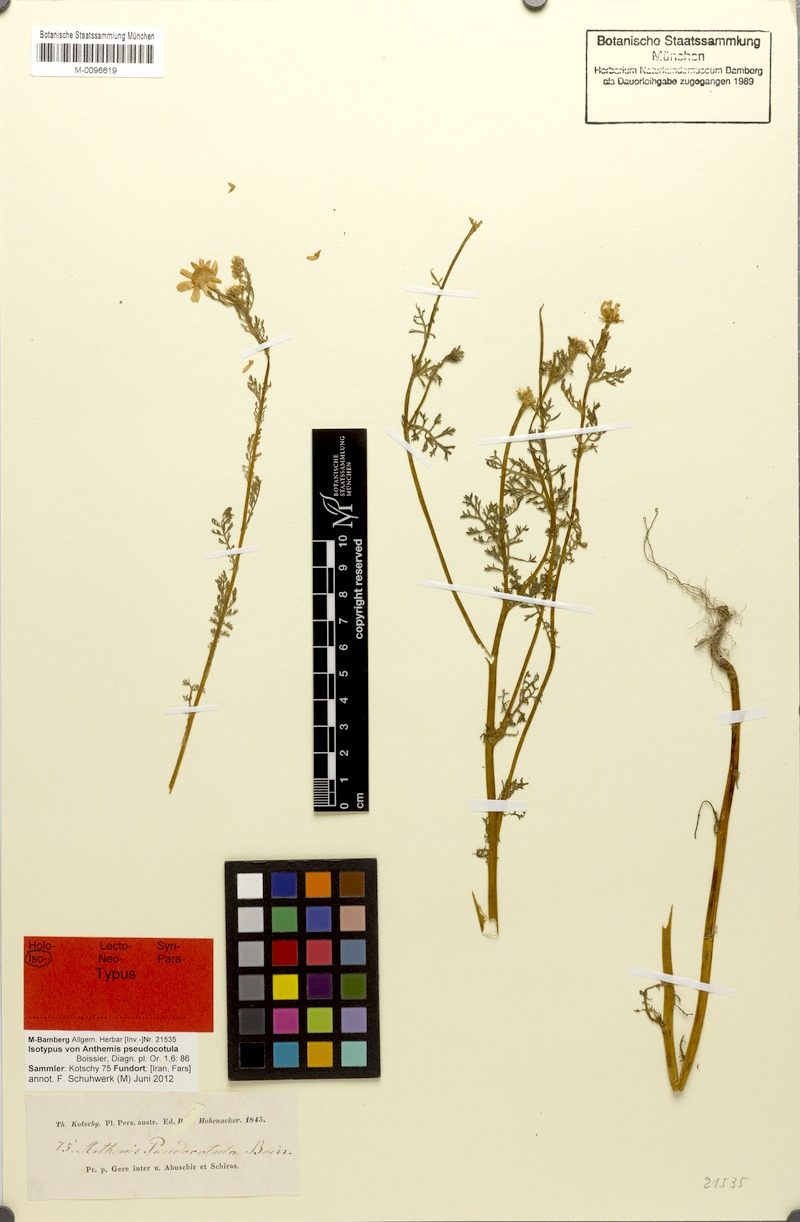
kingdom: Plantae
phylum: Tracheophyta
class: Magnoliopsida
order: Asterales
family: Asteraceae
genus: Anthemis
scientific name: Anthemis pseudocotula
